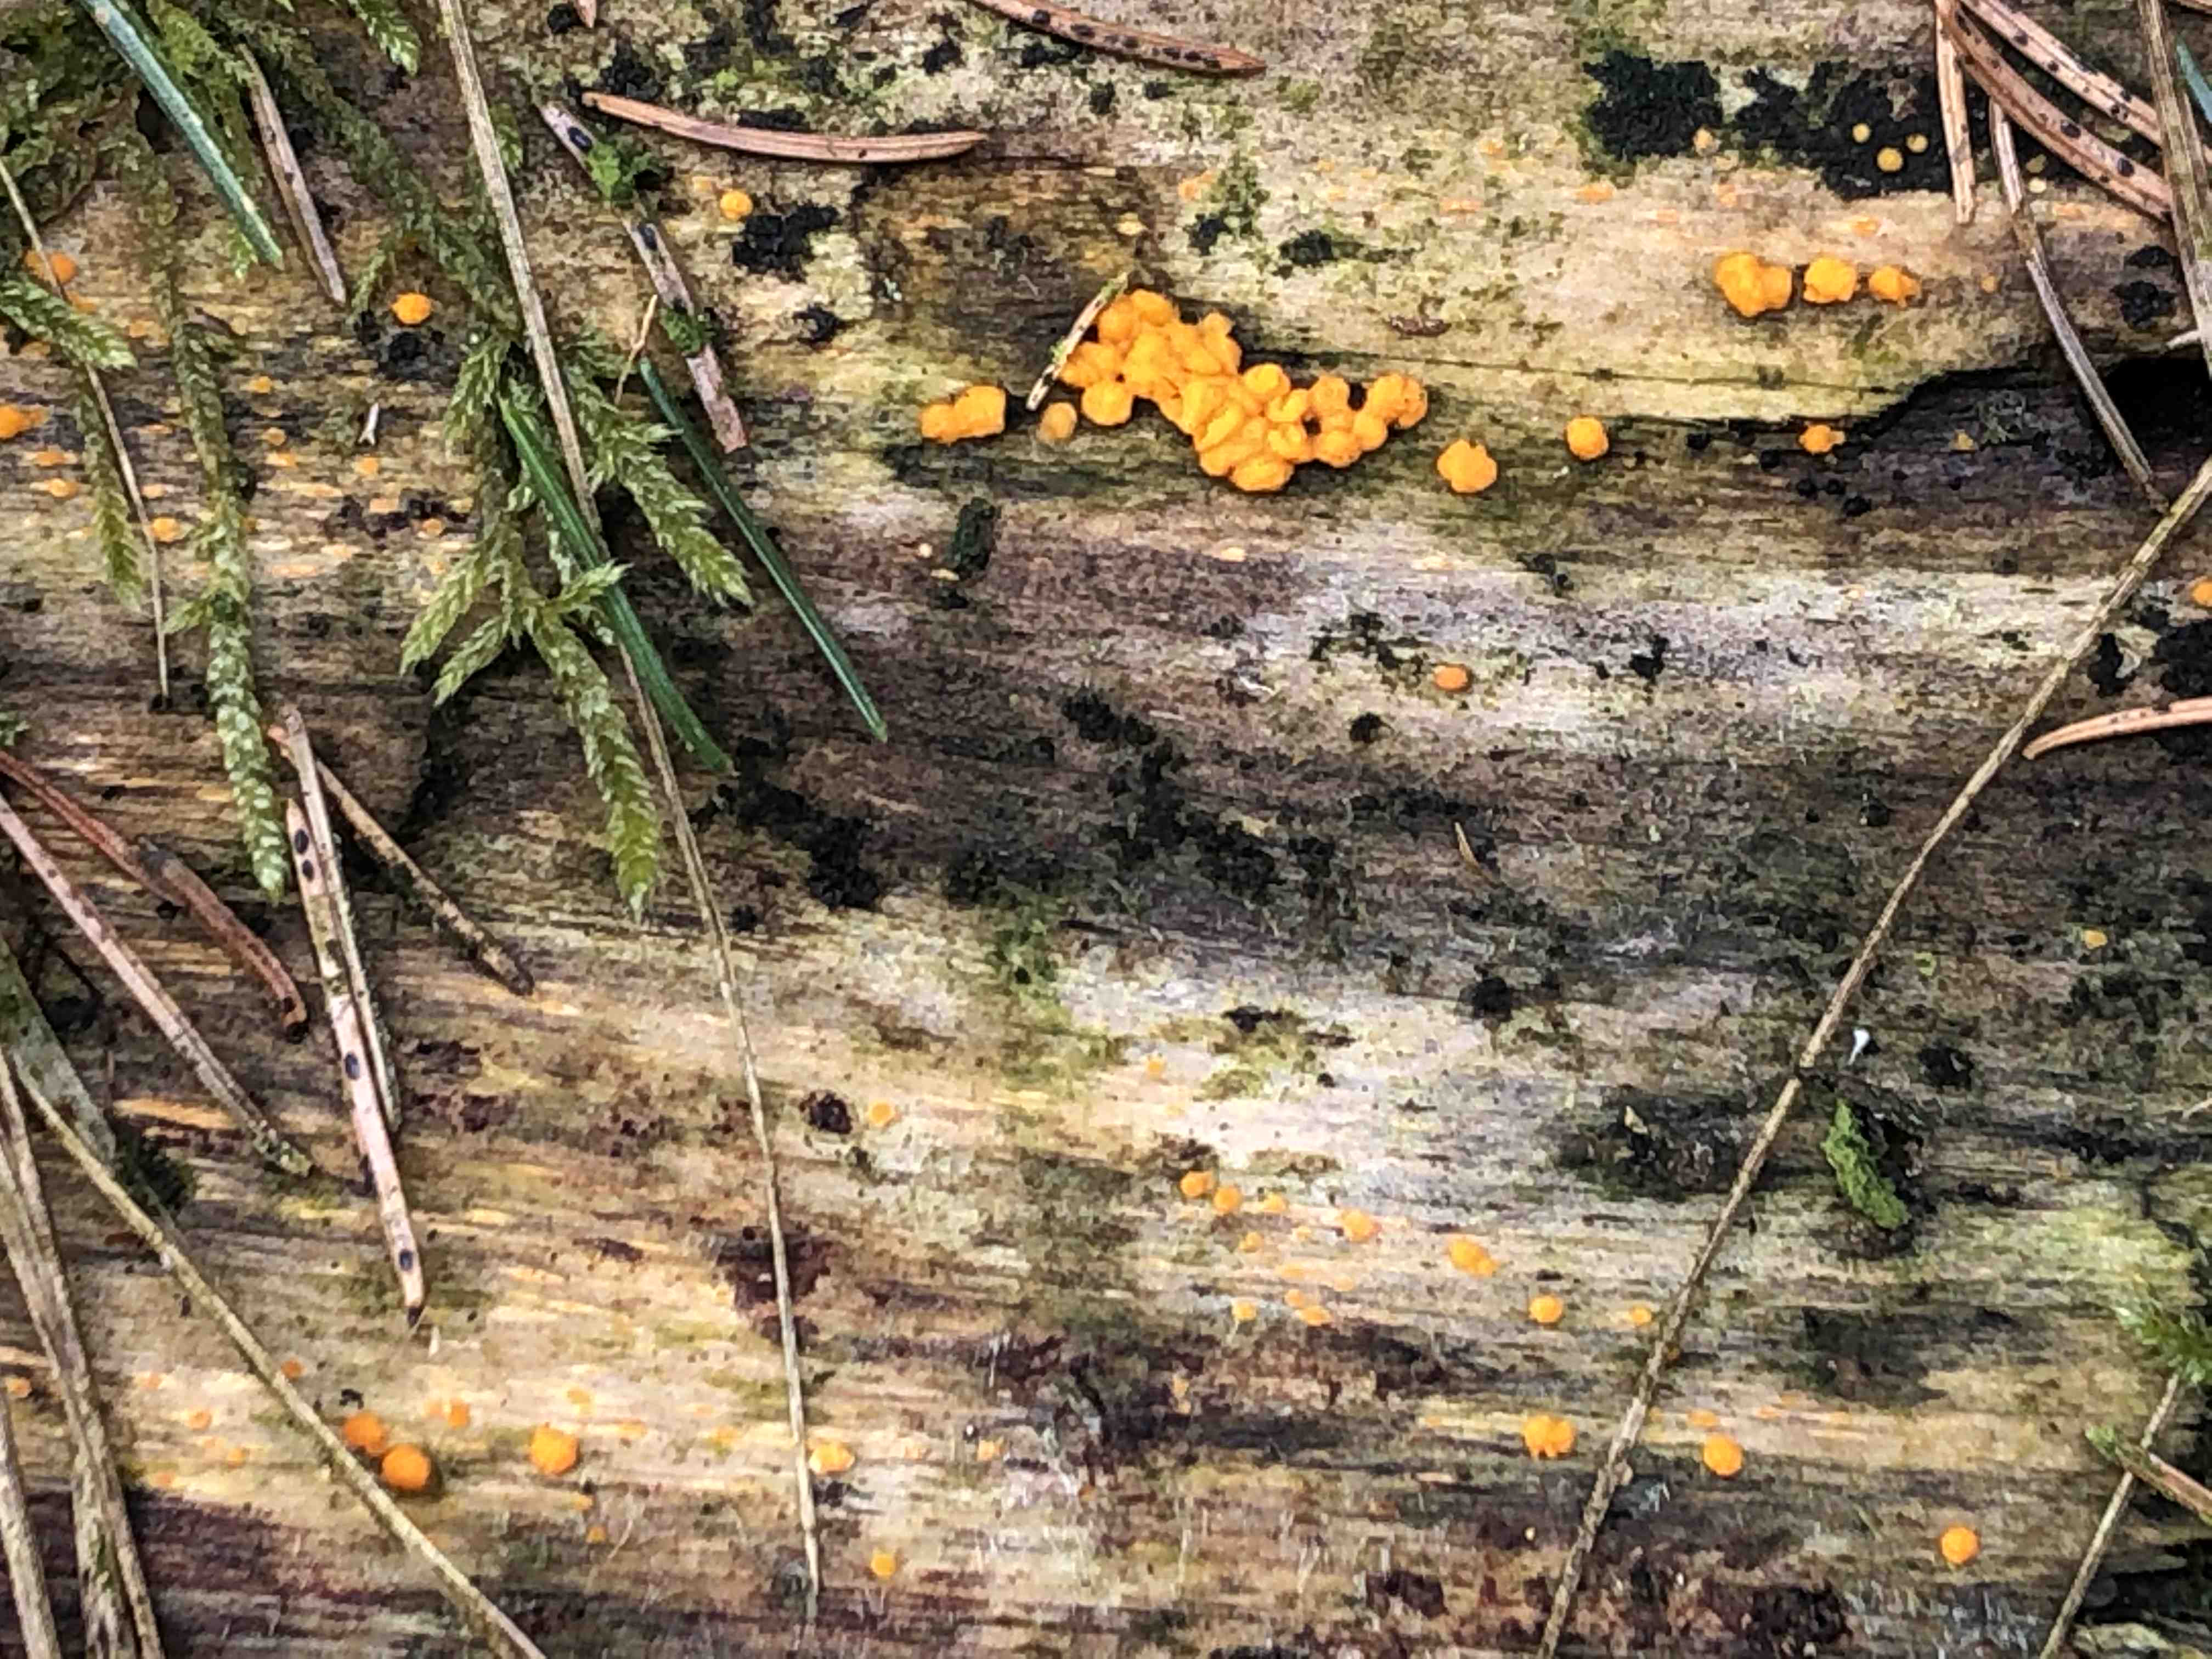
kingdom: Fungi
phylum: Basidiomycota
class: Dacrymycetes
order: Dacrymycetales
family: Dacrymycetaceae
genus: Dacrymyces
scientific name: Dacrymyces
